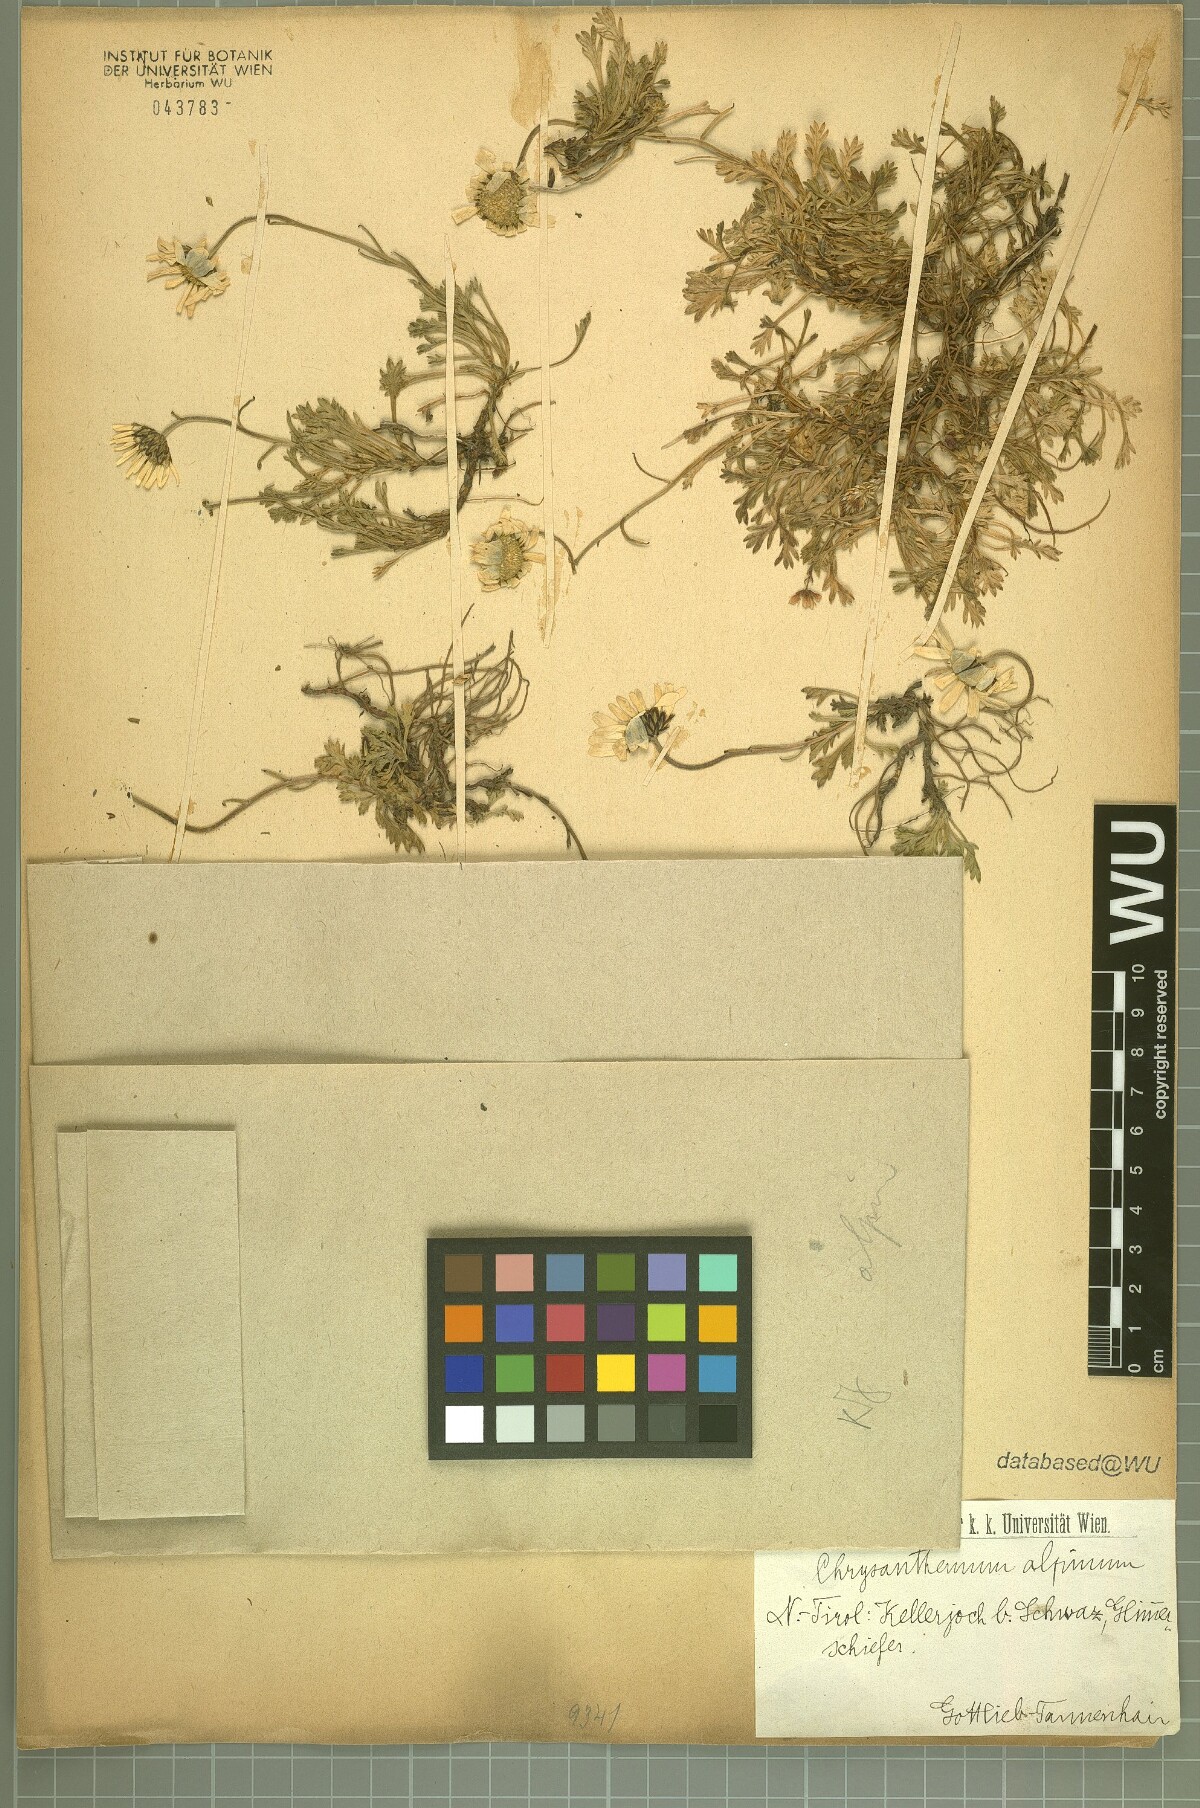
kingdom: Plantae
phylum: Tracheophyta
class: Magnoliopsida
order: Asterales
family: Asteraceae
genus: Leucanthemopsis
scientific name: Leucanthemopsis alpina
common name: Alpine moon daisy
